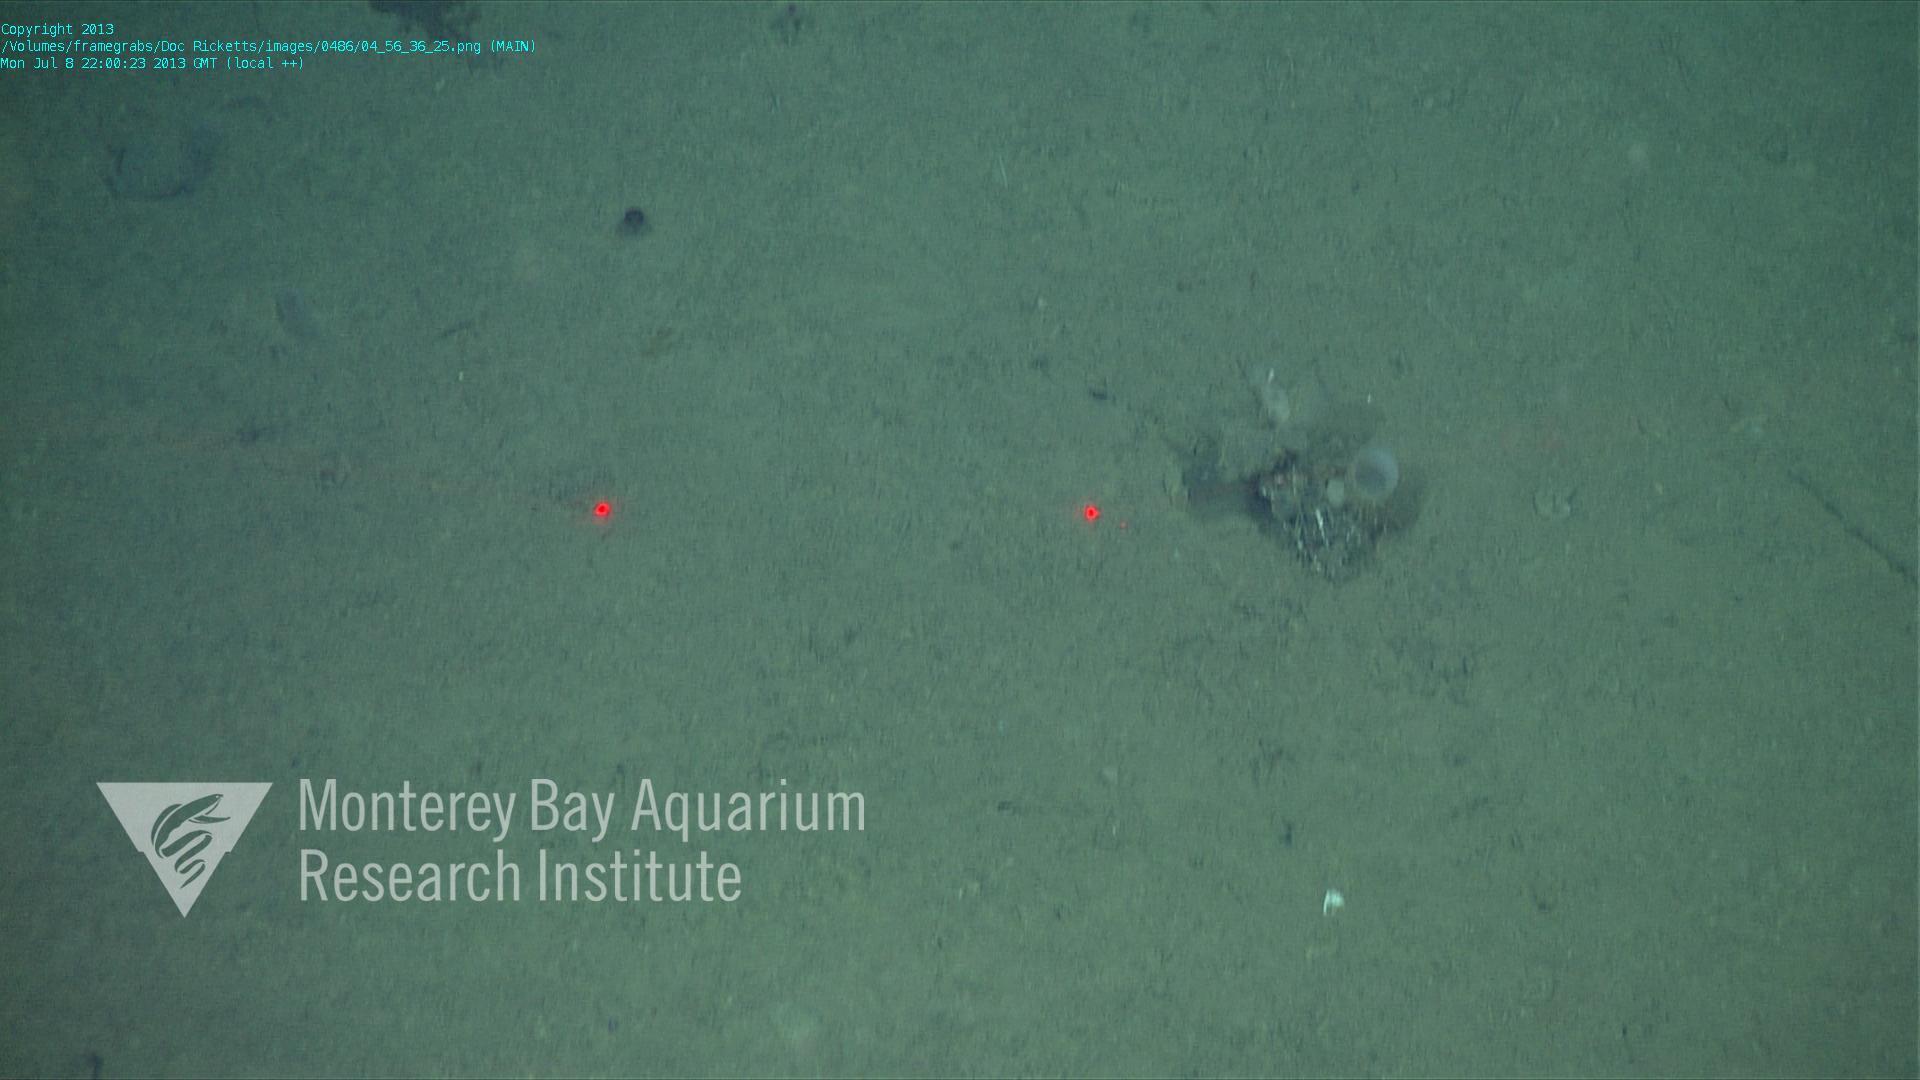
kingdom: Animalia
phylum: Porifera
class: Hexactinellida
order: Lyssacinosida
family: Rossellidae
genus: Bathydorus
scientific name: Bathydorus spinosus
